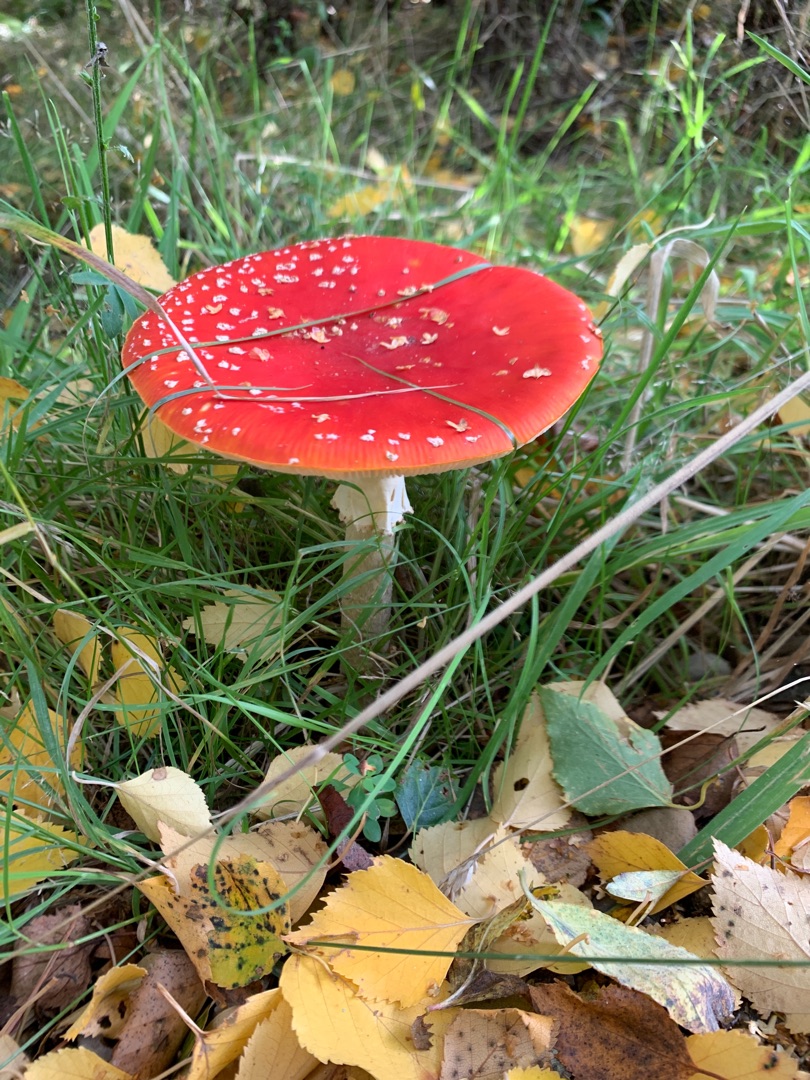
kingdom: Fungi
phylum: Basidiomycota
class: Agaricomycetes
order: Agaricales
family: Amanitaceae
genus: Amanita
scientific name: Amanita muscaria
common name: Rød fluesvamp
